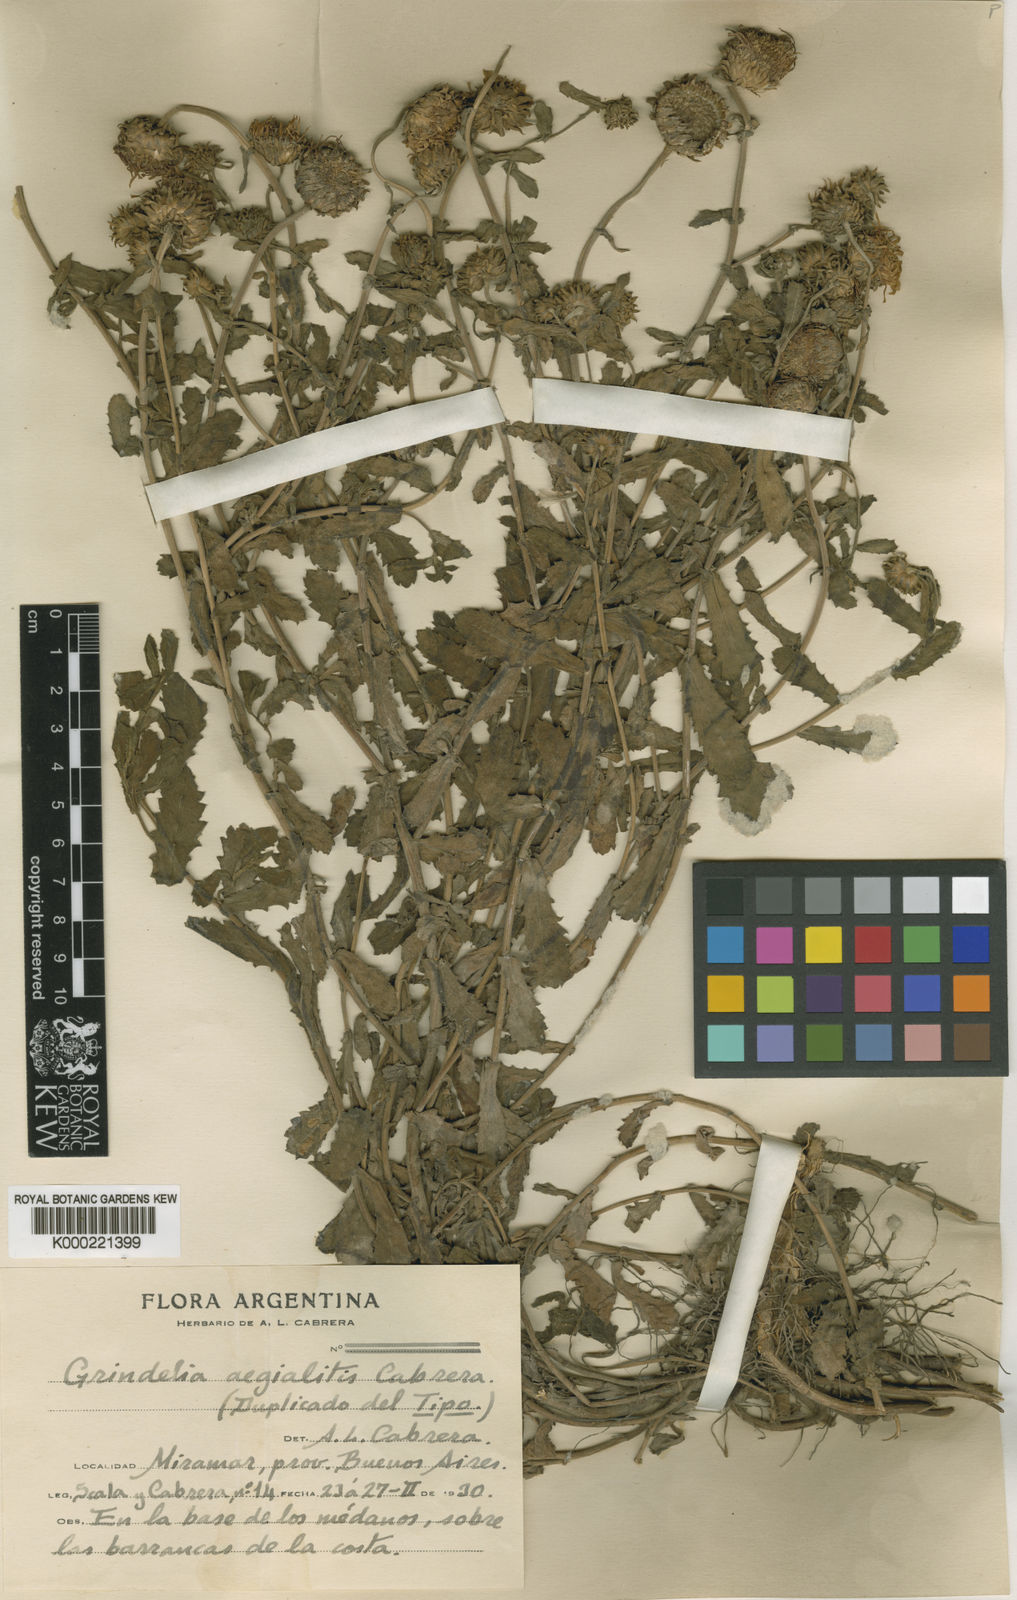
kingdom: Plantae
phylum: Tracheophyta
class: Magnoliopsida
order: Asterales
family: Asteraceae
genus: Grindelia
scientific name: Grindelia aegialitis
